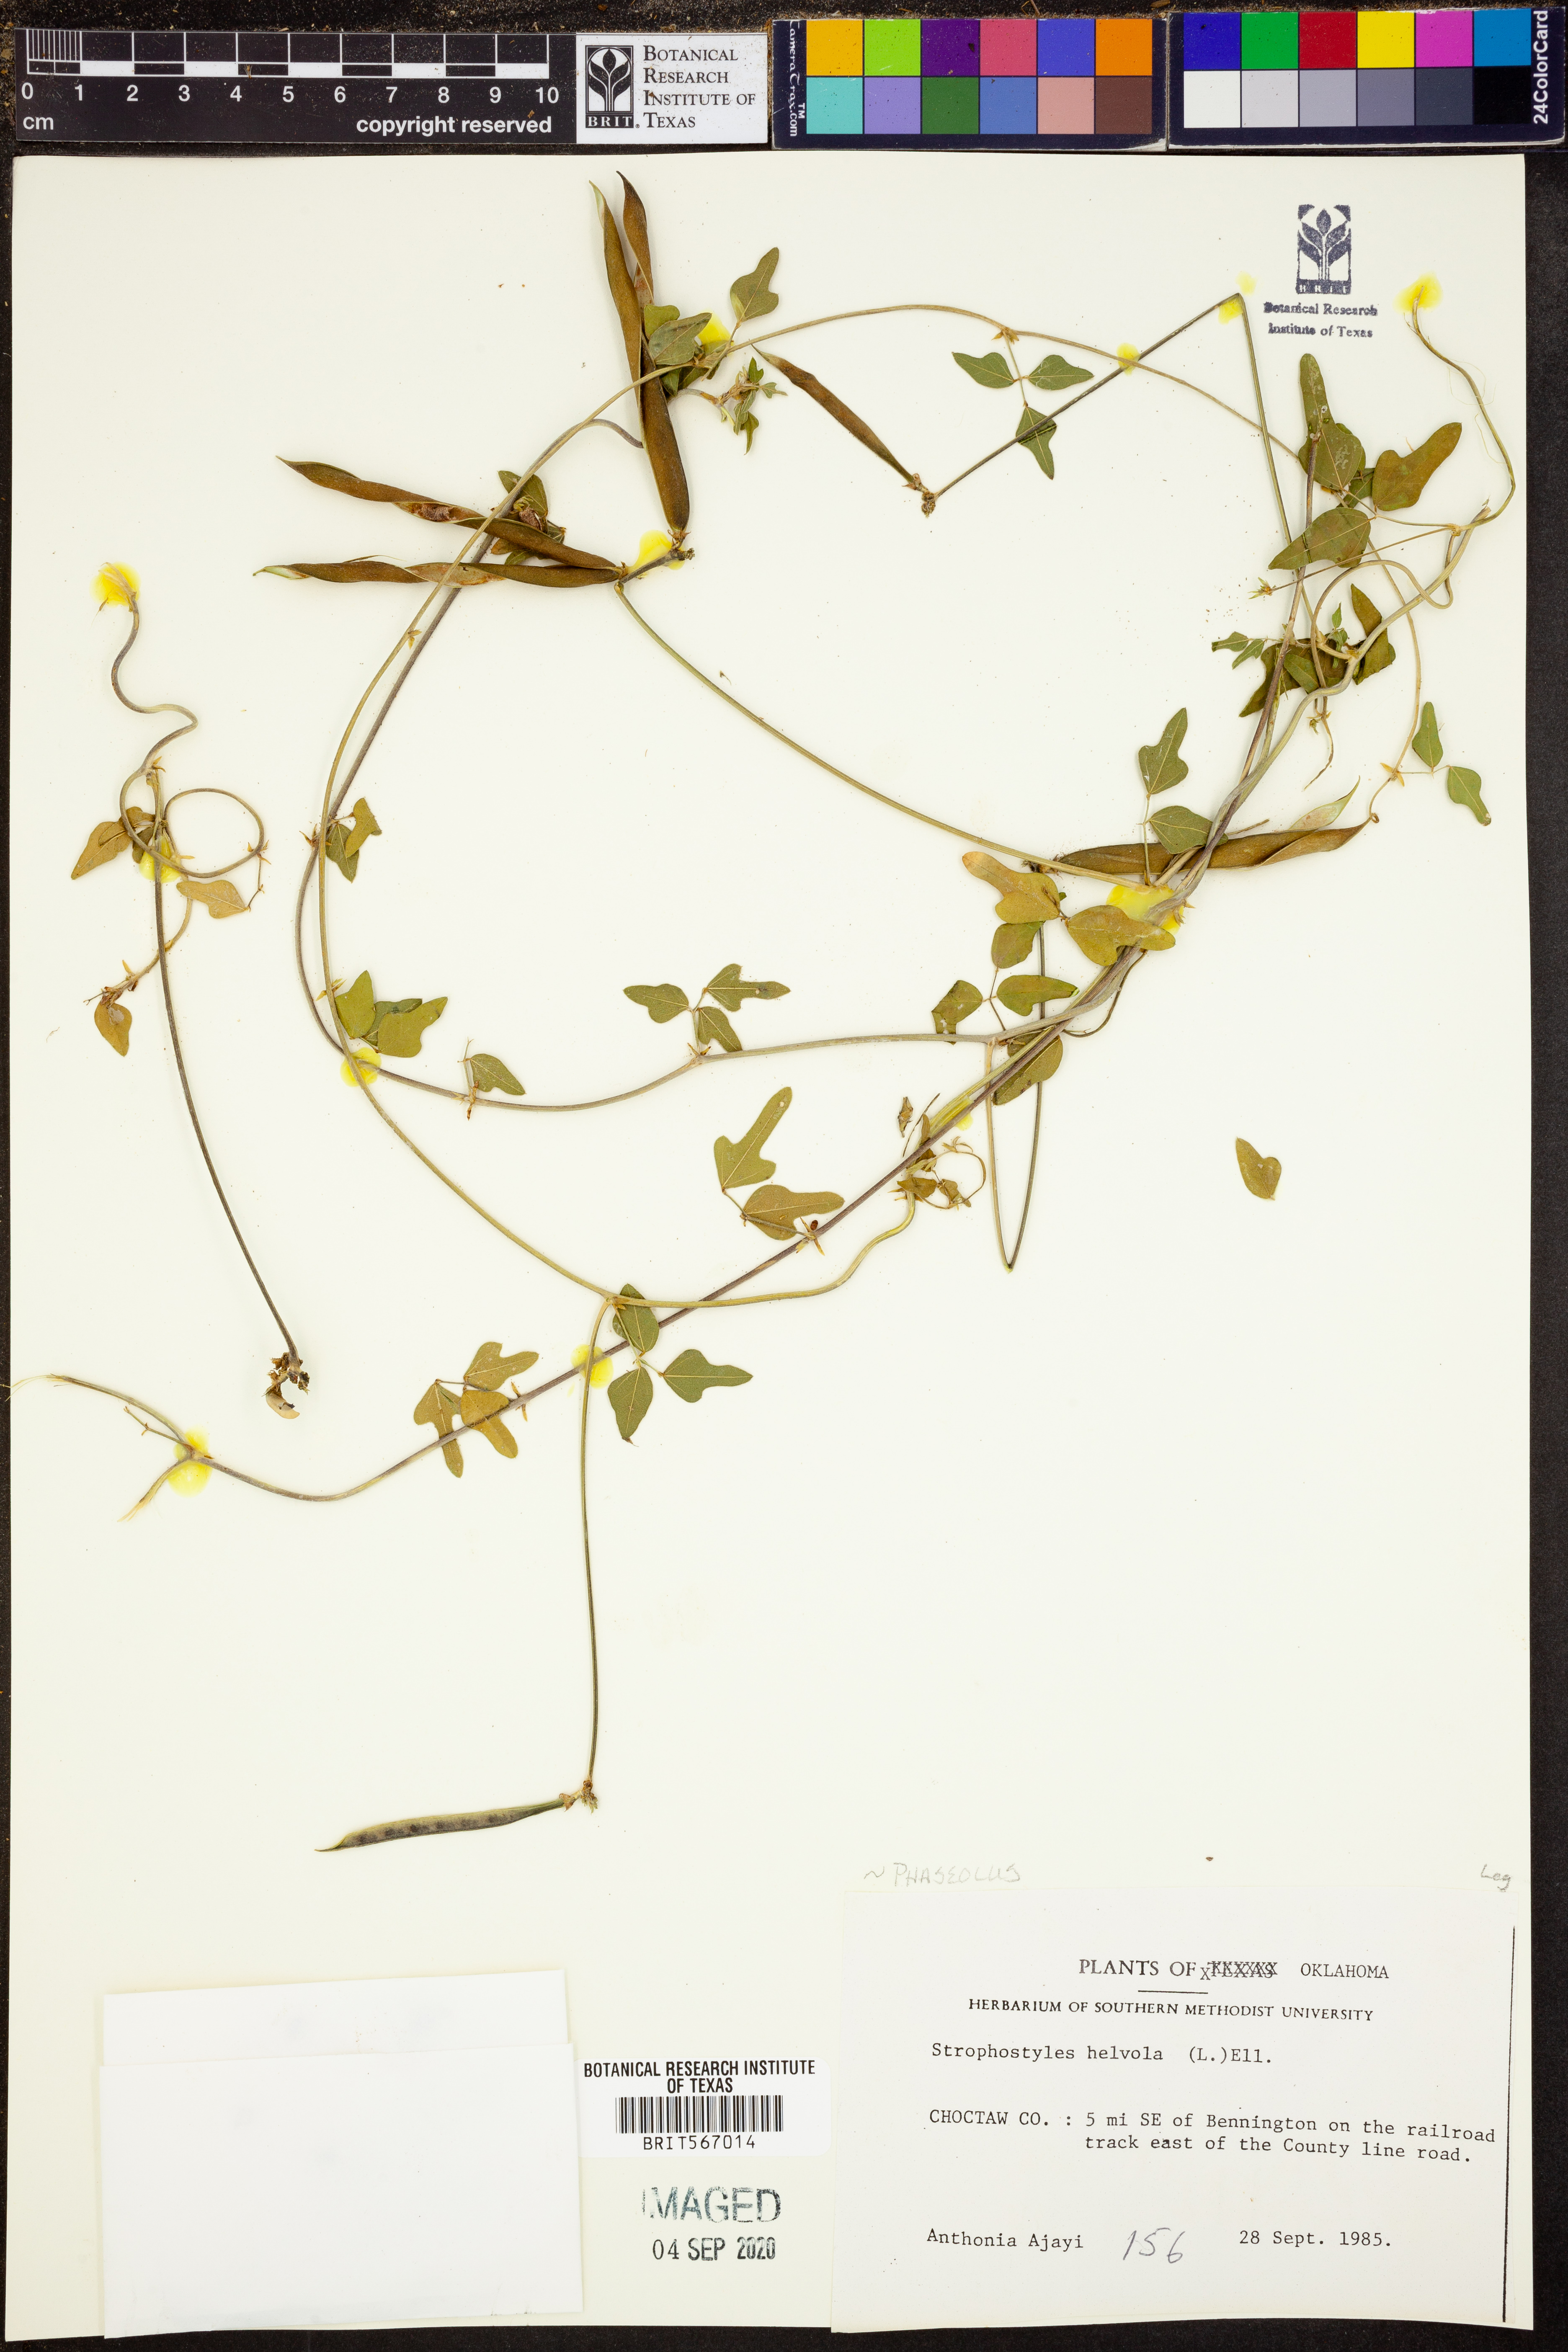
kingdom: Plantae
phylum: Tracheophyta
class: Magnoliopsida
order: Fabales
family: Fabaceae
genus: Strophostyles
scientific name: Strophostyles helvola
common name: Trailing wild bean
